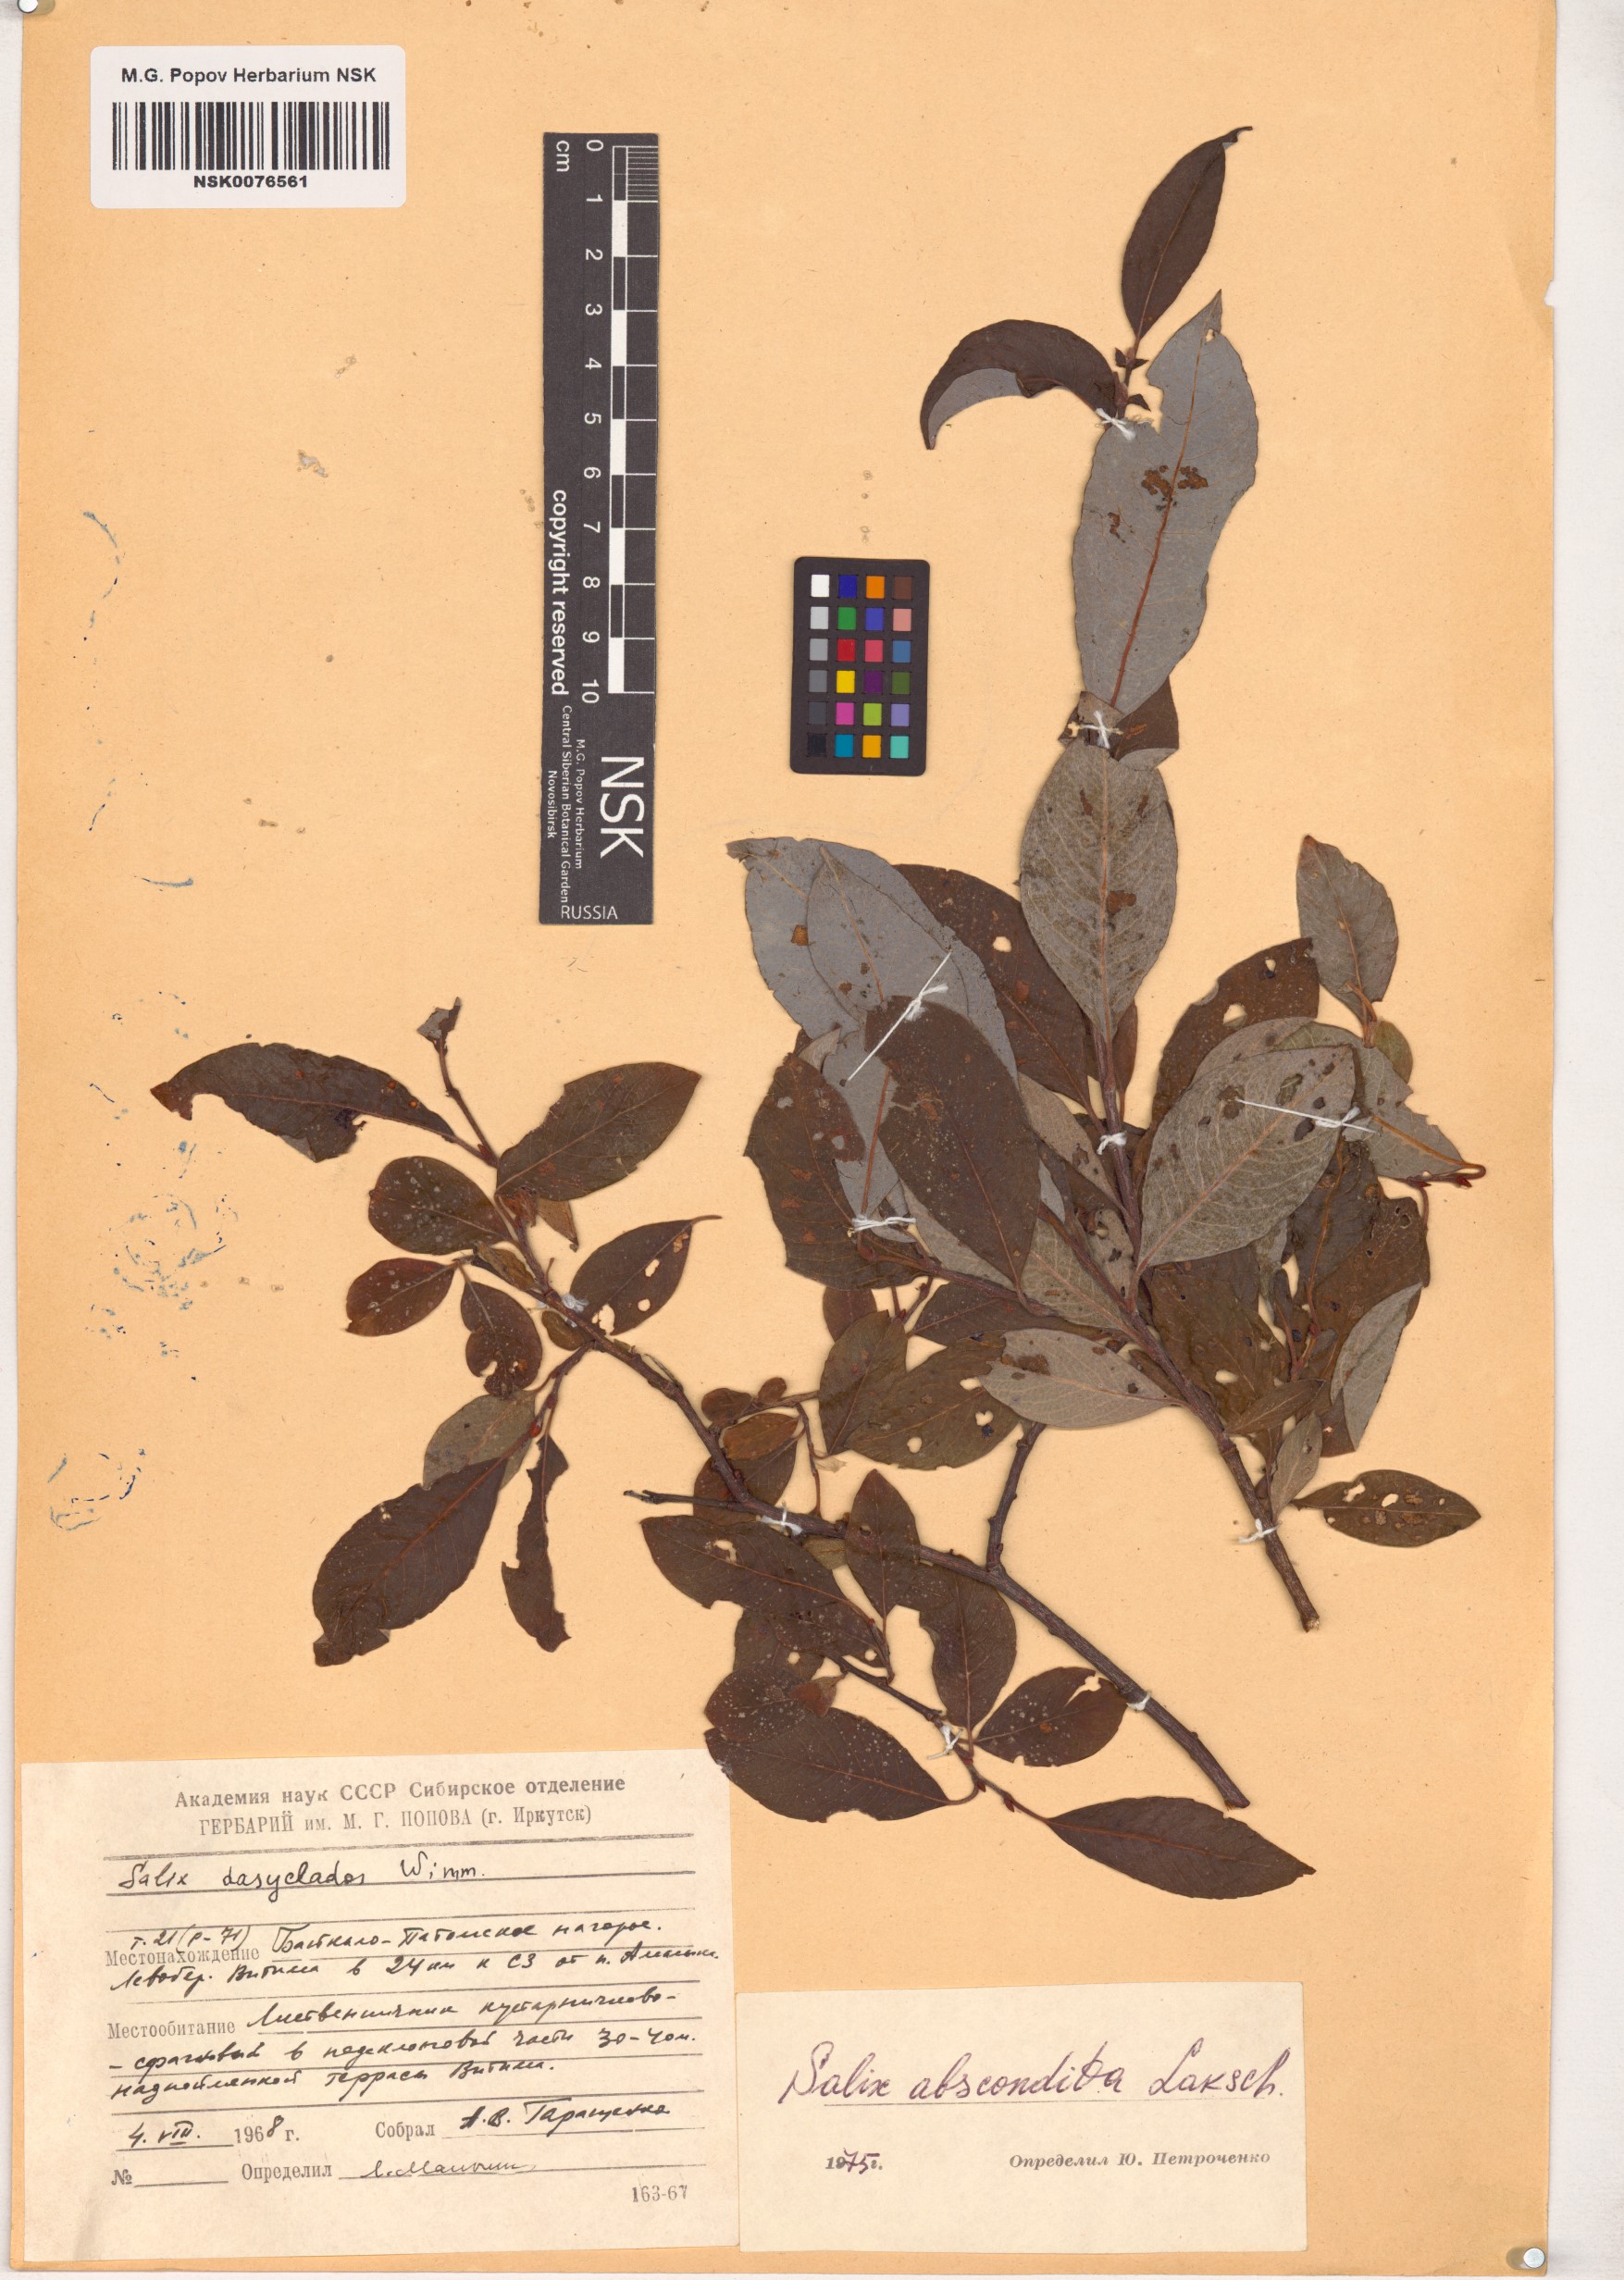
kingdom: Plantae
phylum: Tracheophyta
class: Magnoliopsida
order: Malpighiales
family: Salicaceae
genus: Salix
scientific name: Salix abscondita
